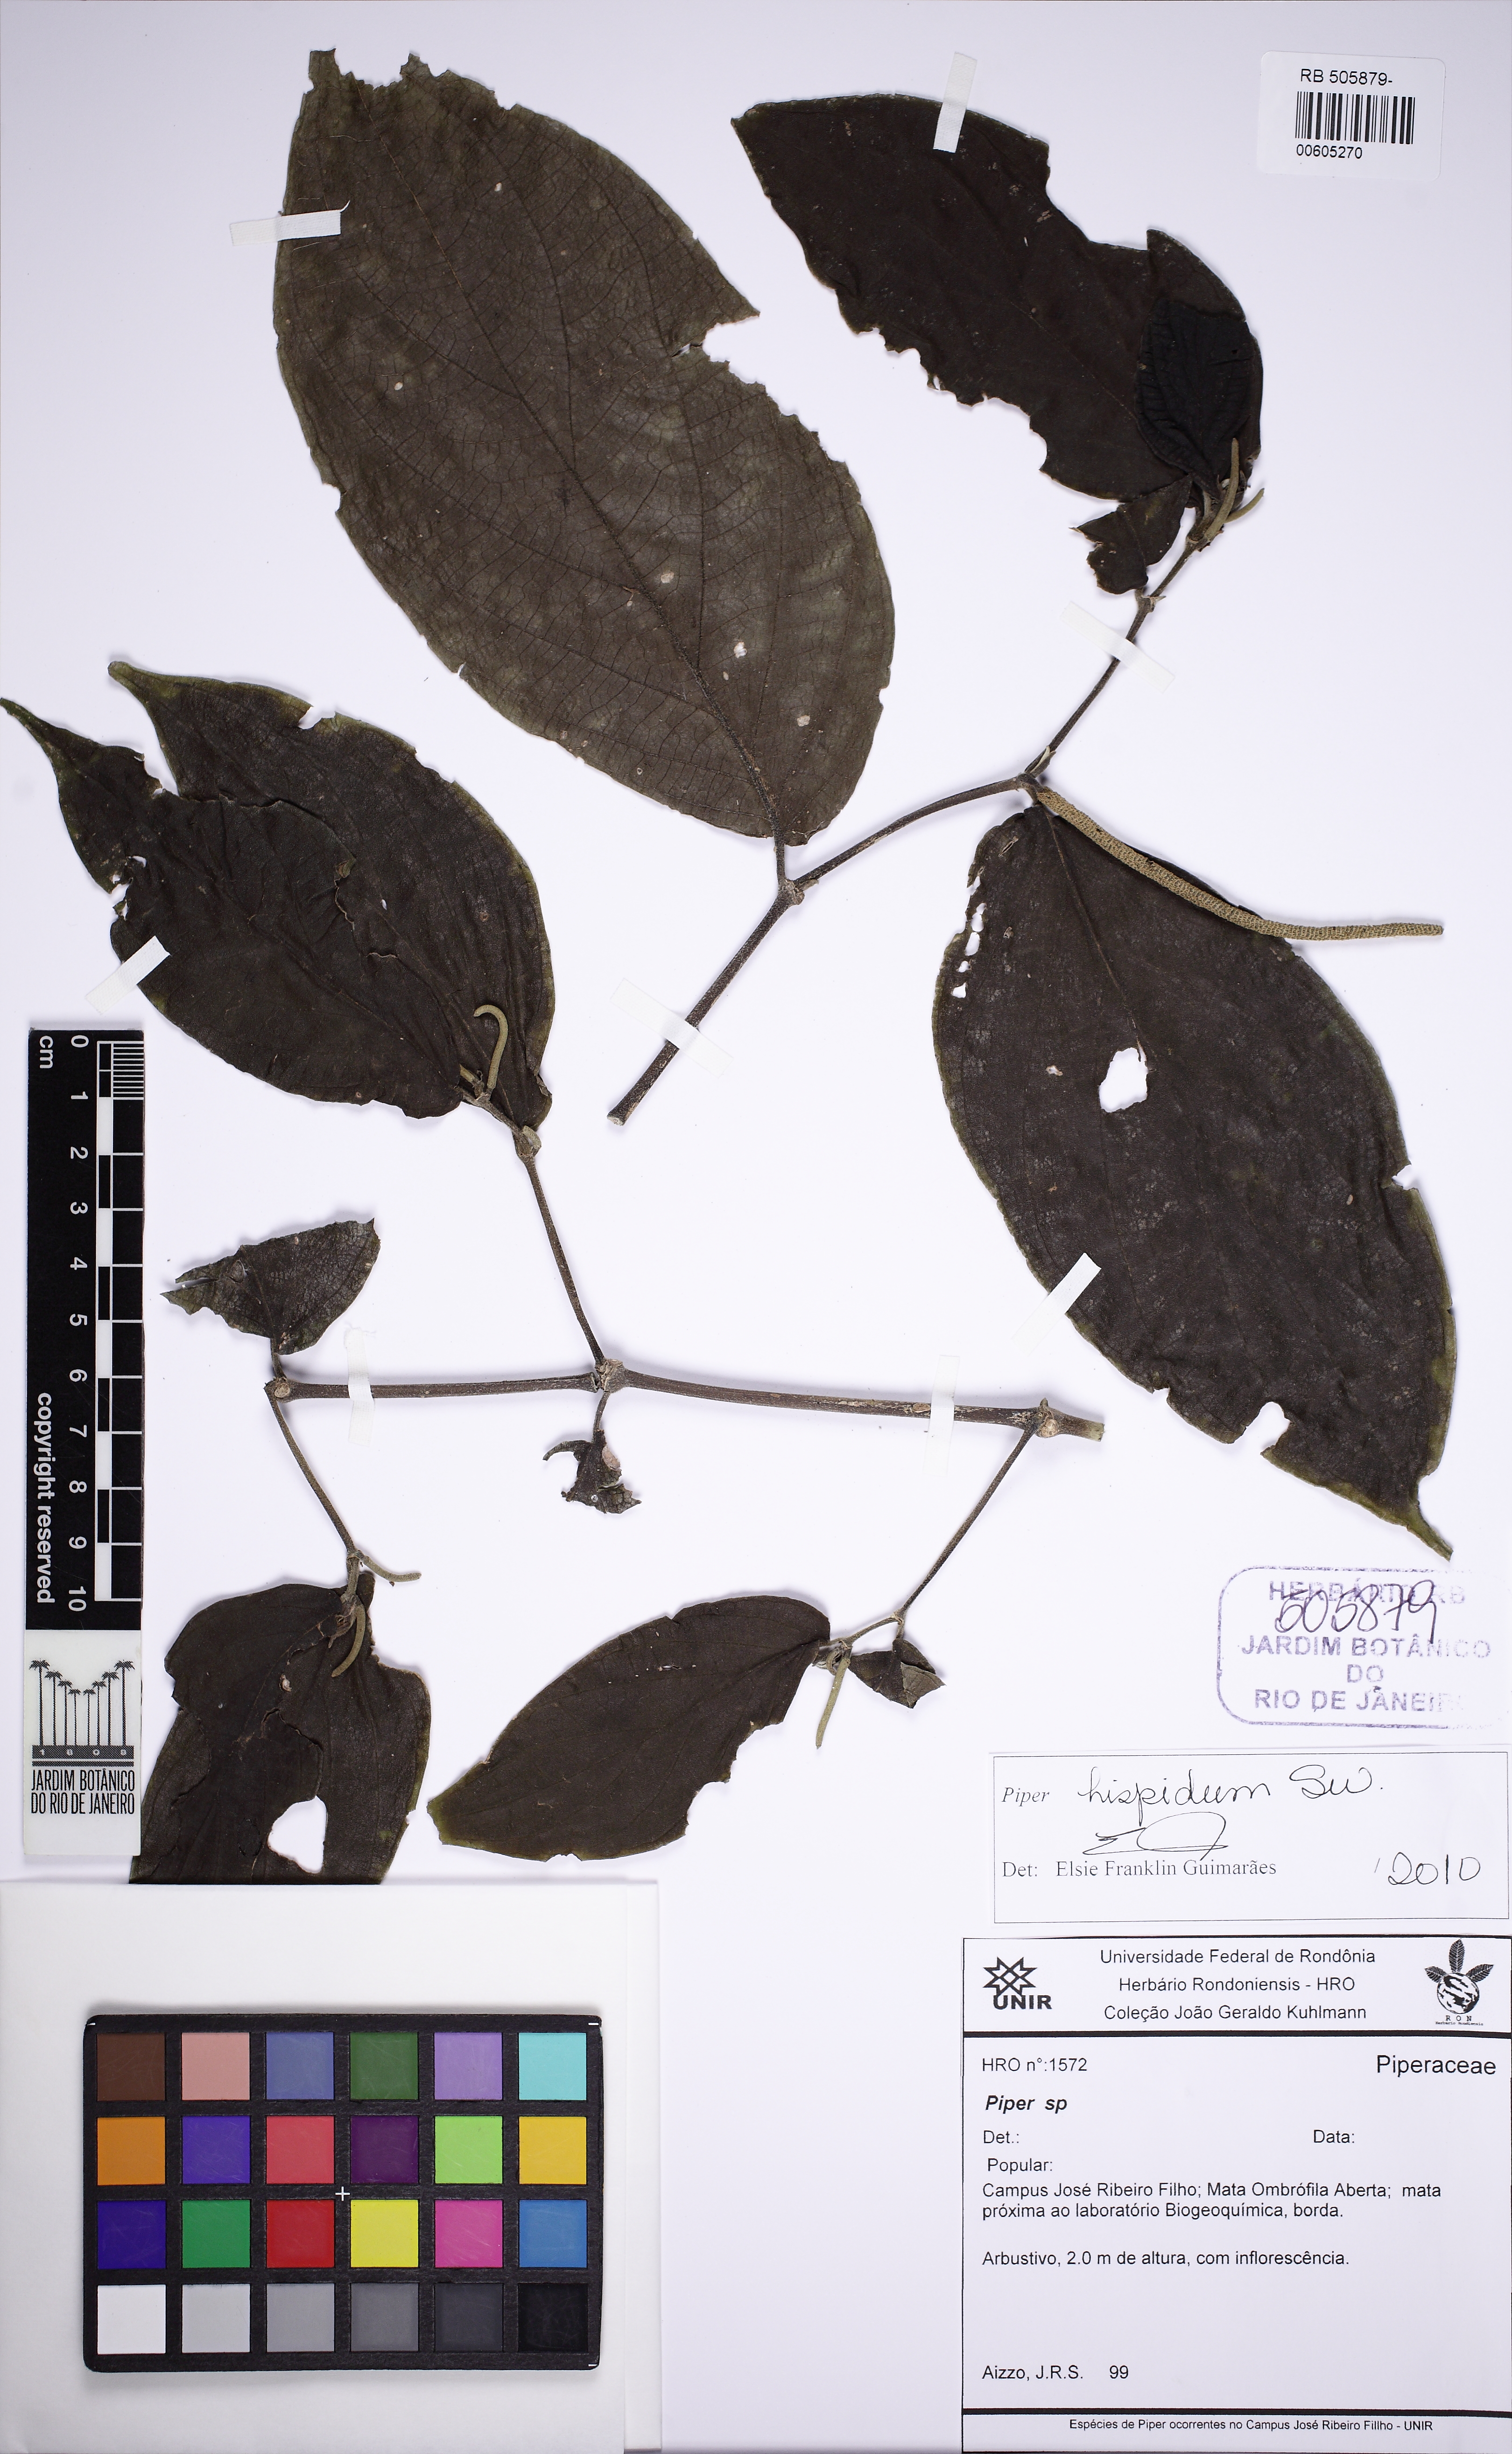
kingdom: Plantae
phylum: Tracheophyta
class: Magnoliopsida
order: Piperales
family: Piperaceae
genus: Piper
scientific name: Piper hispidum
